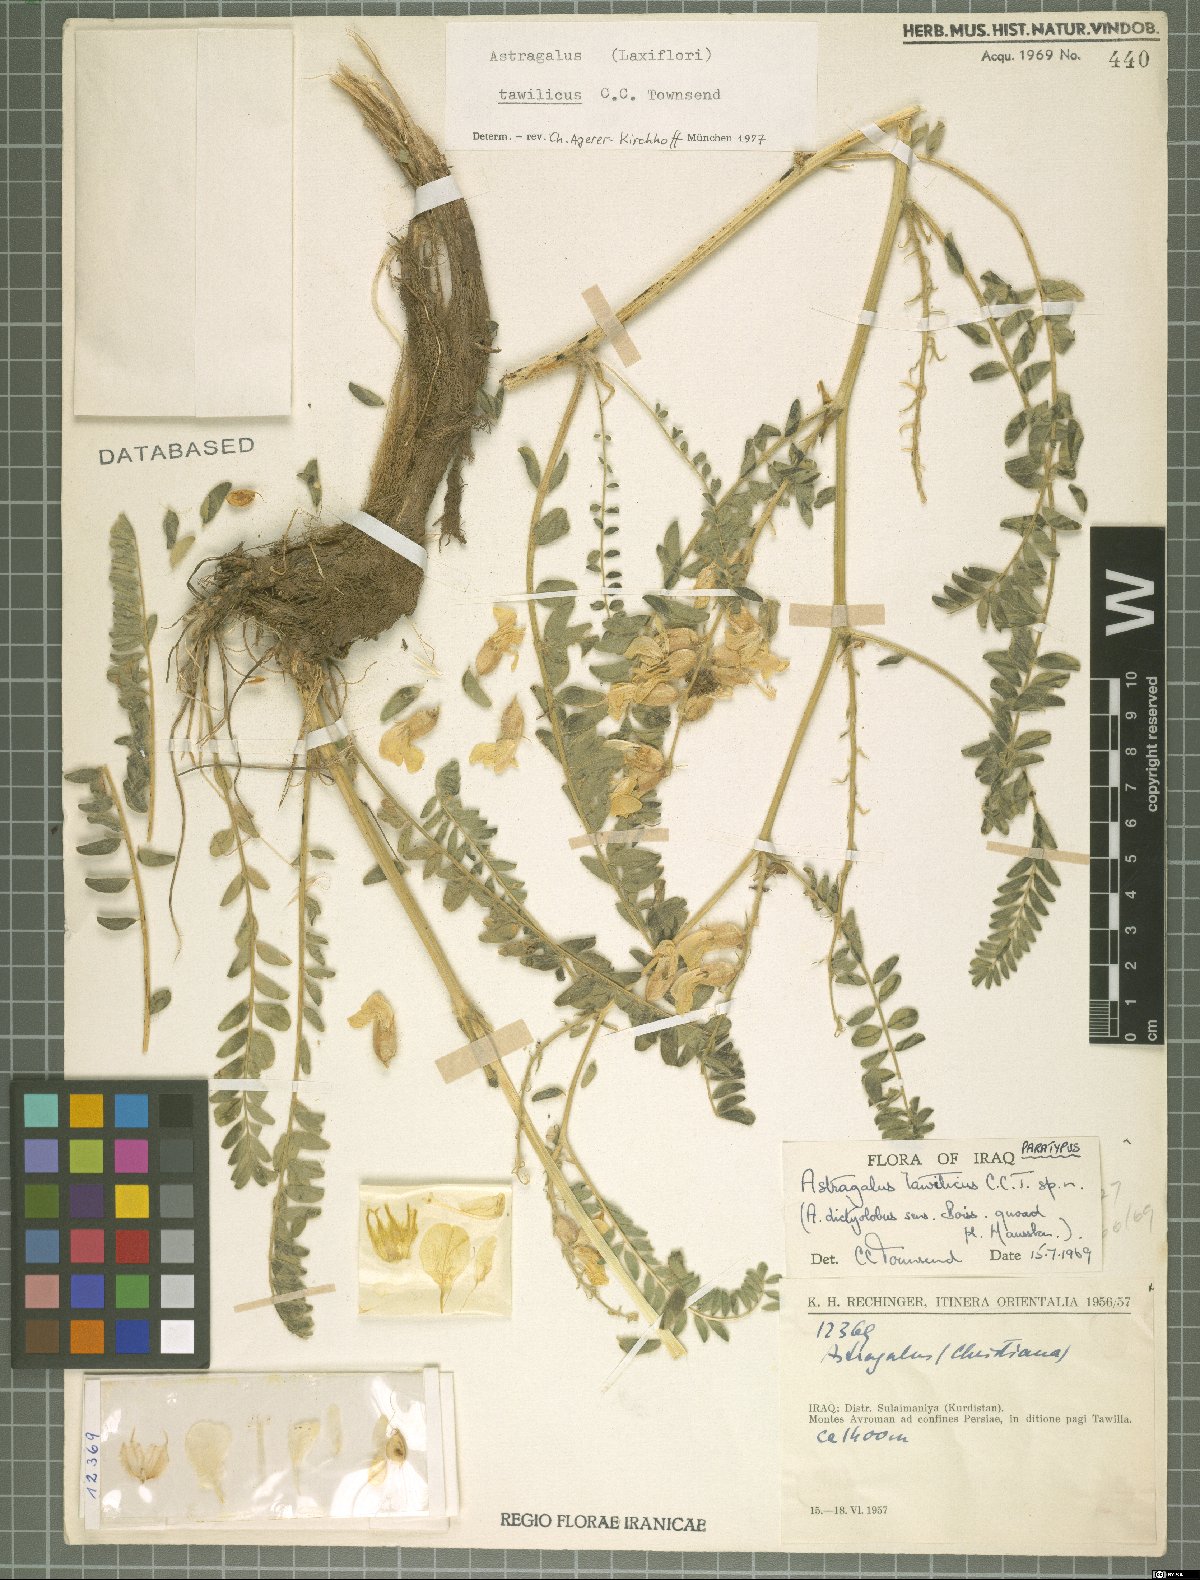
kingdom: Plantae
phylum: Tracheophyta
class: Magnoliopsida
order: Fabales
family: Fabaceae
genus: Astragalus
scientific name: Astragalus tawilicus
